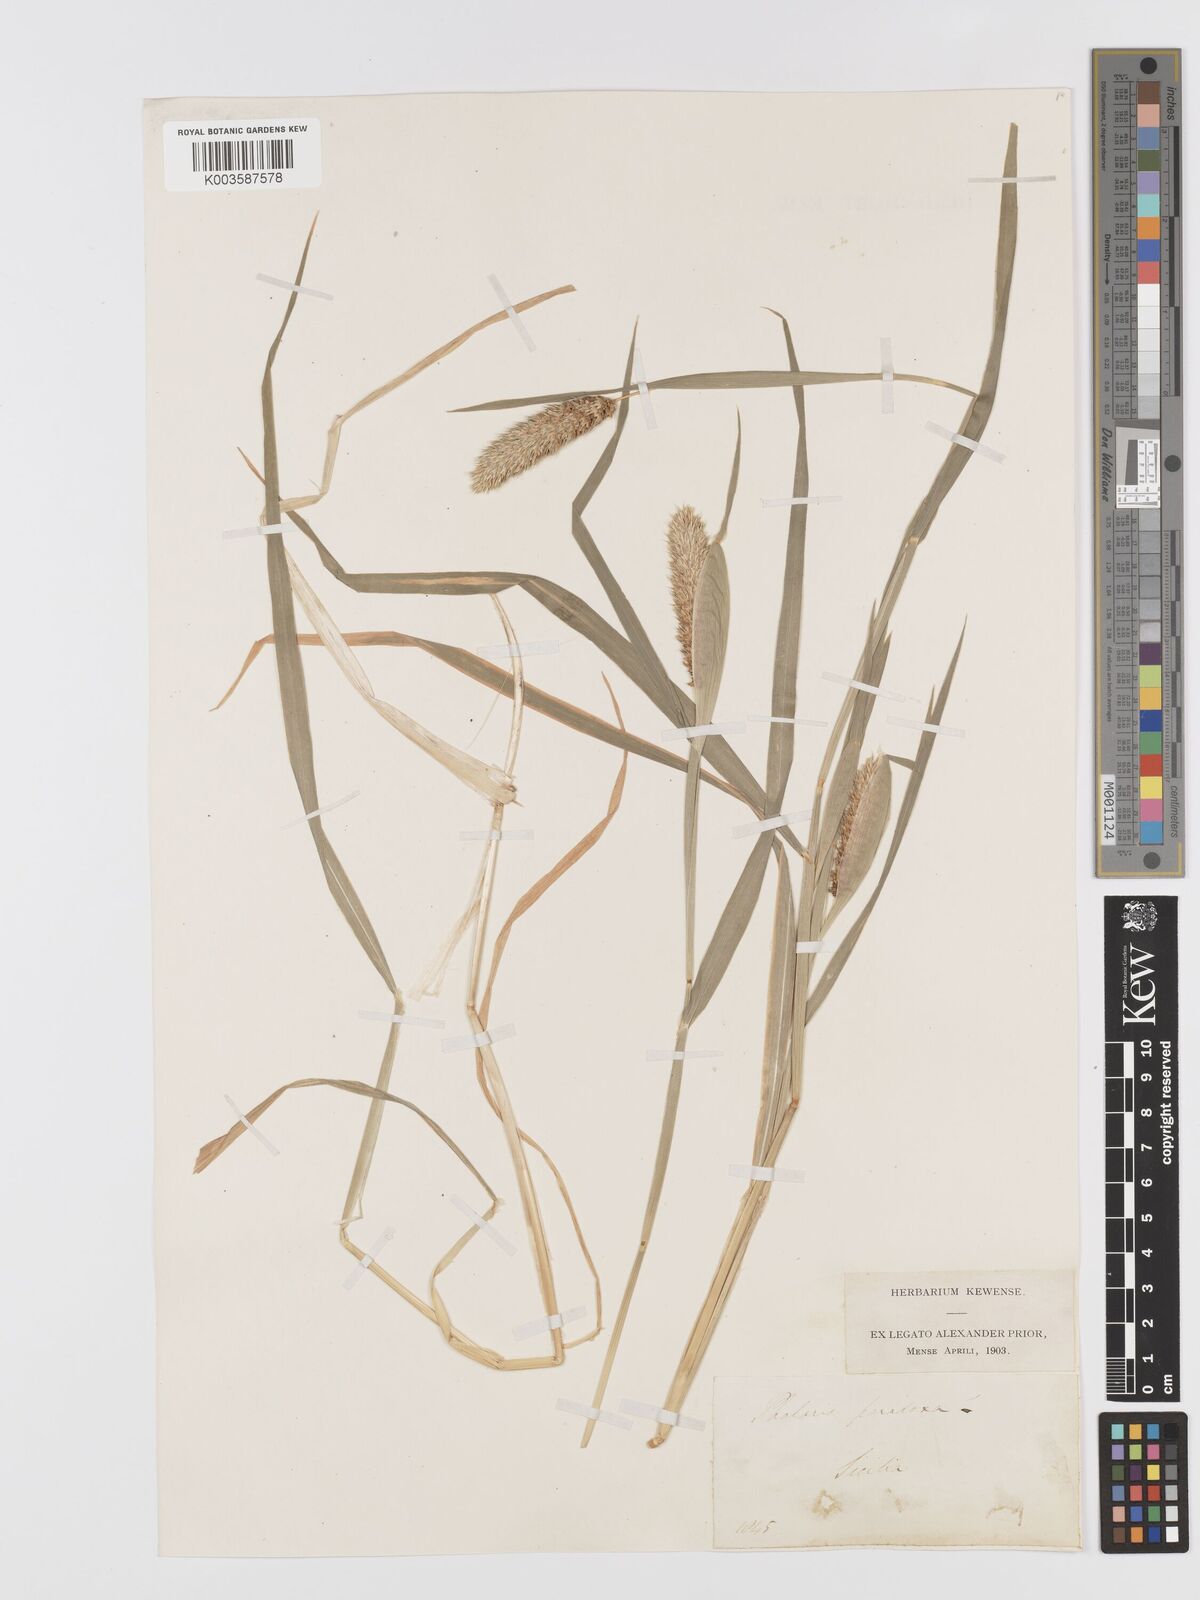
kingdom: Plantae
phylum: Tracheophyta
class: Liliopsida
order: Poales
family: Poaceae
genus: Phalaris
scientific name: Phalaris paradoxa
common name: Awned canary-grass
